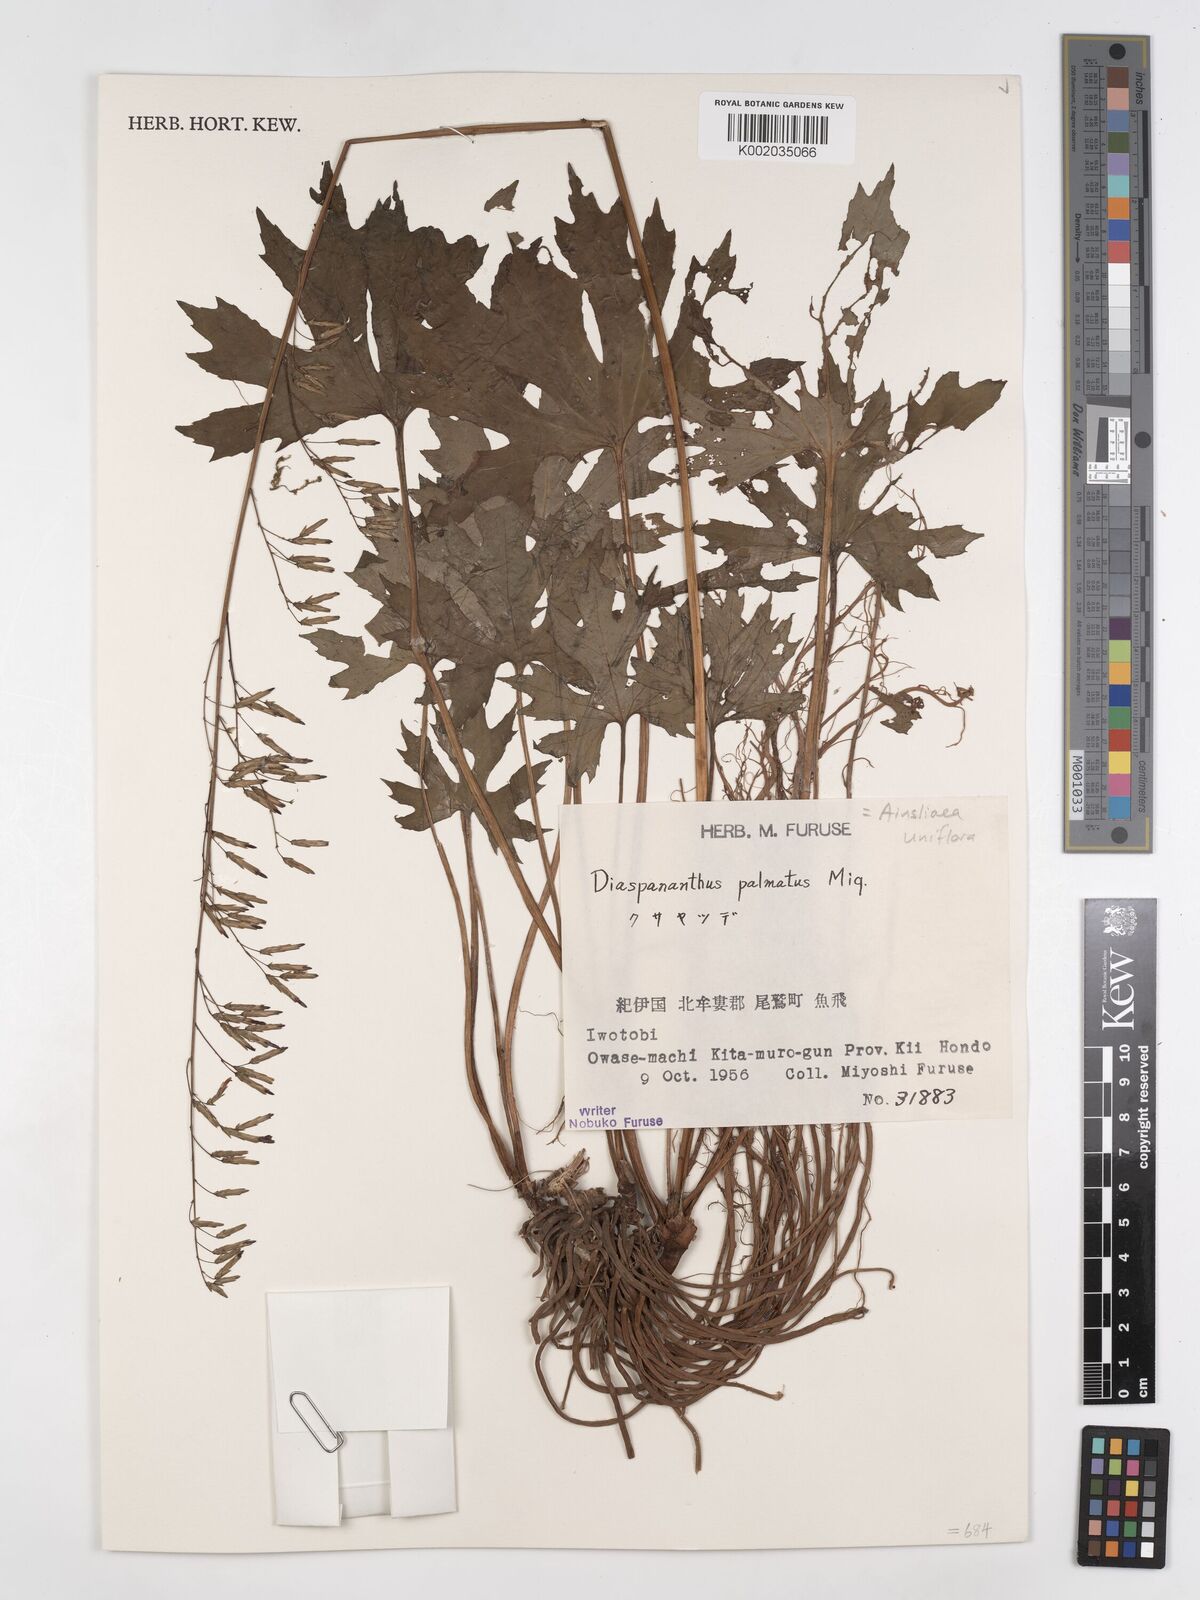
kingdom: Plantae
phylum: Tracheophyta
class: Magnoliopsida
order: Asterales
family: Asteraceae
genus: Ainsliaea
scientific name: Ainsliaea uniflora
